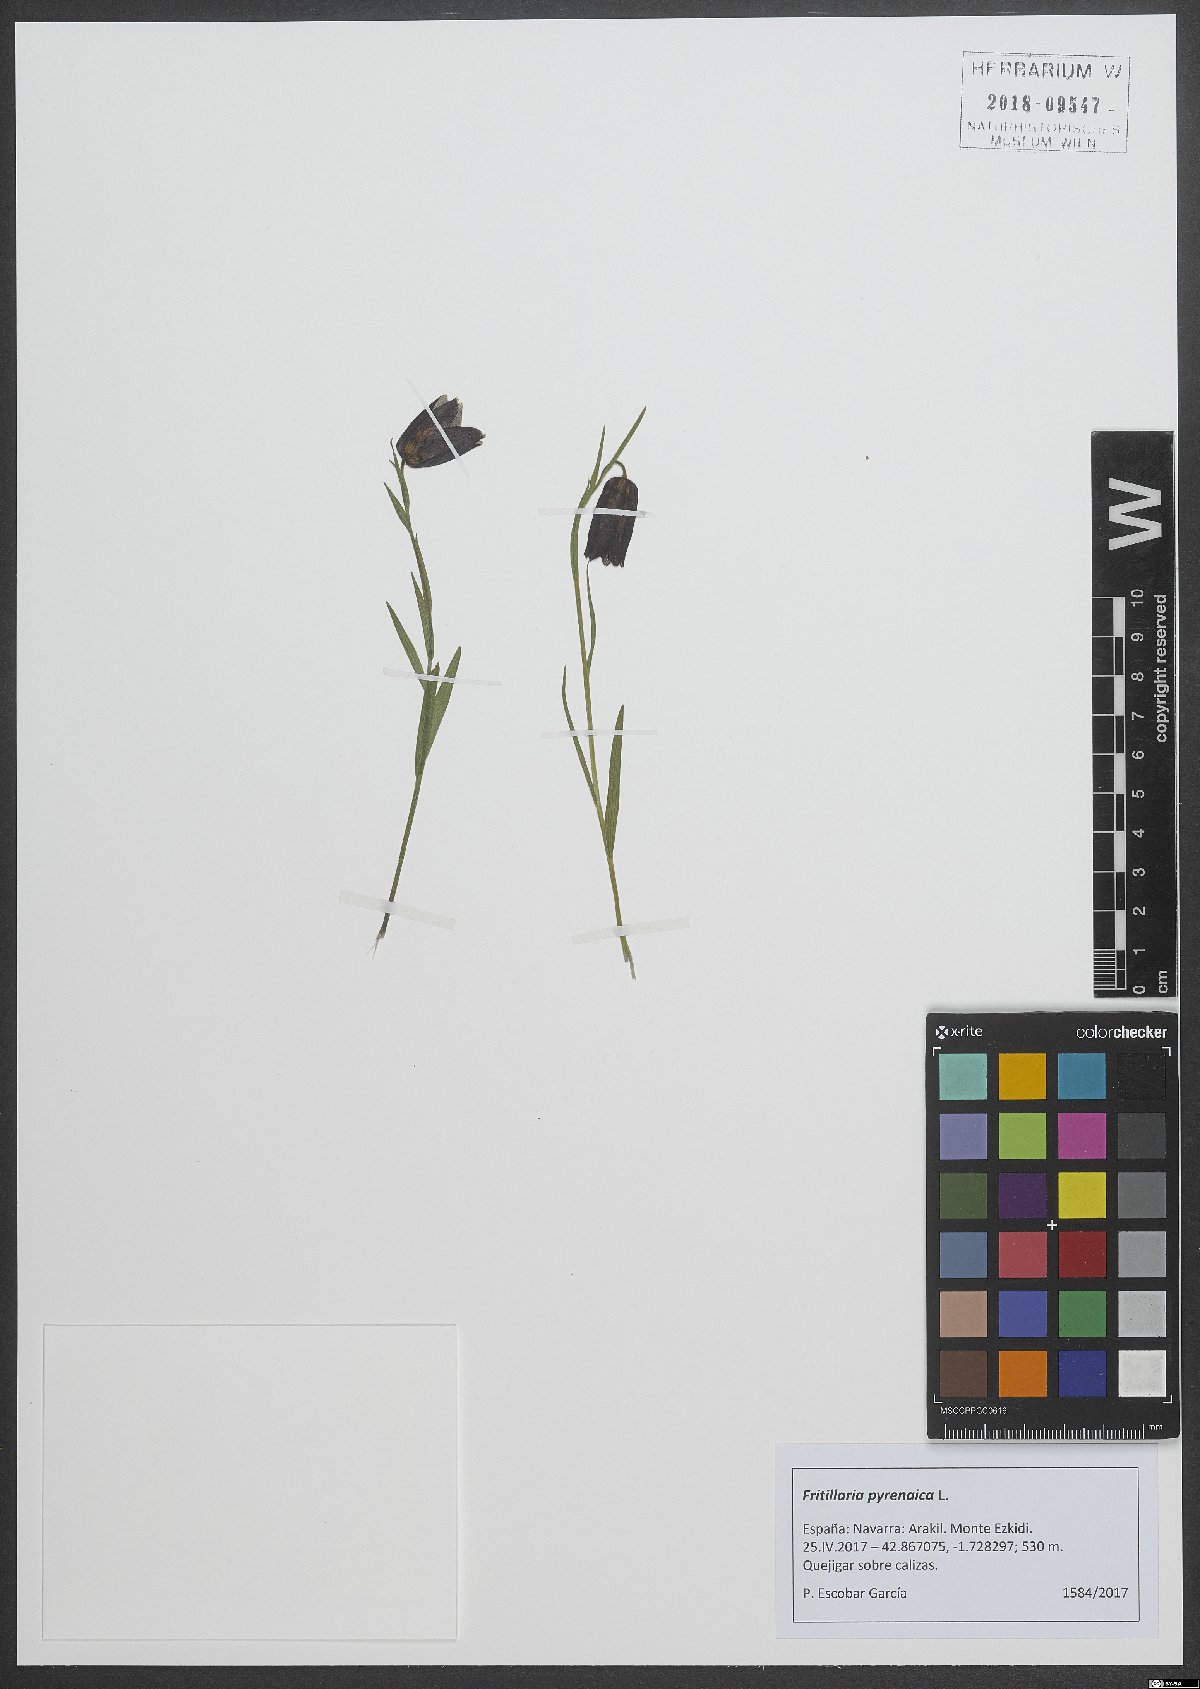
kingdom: Plantae
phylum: Tracheophyta
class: Liliopsida
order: Liliales
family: Liliaceae
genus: Fritillaria
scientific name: Fritillaria pyrenaica
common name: Pyrenean snake's-head
